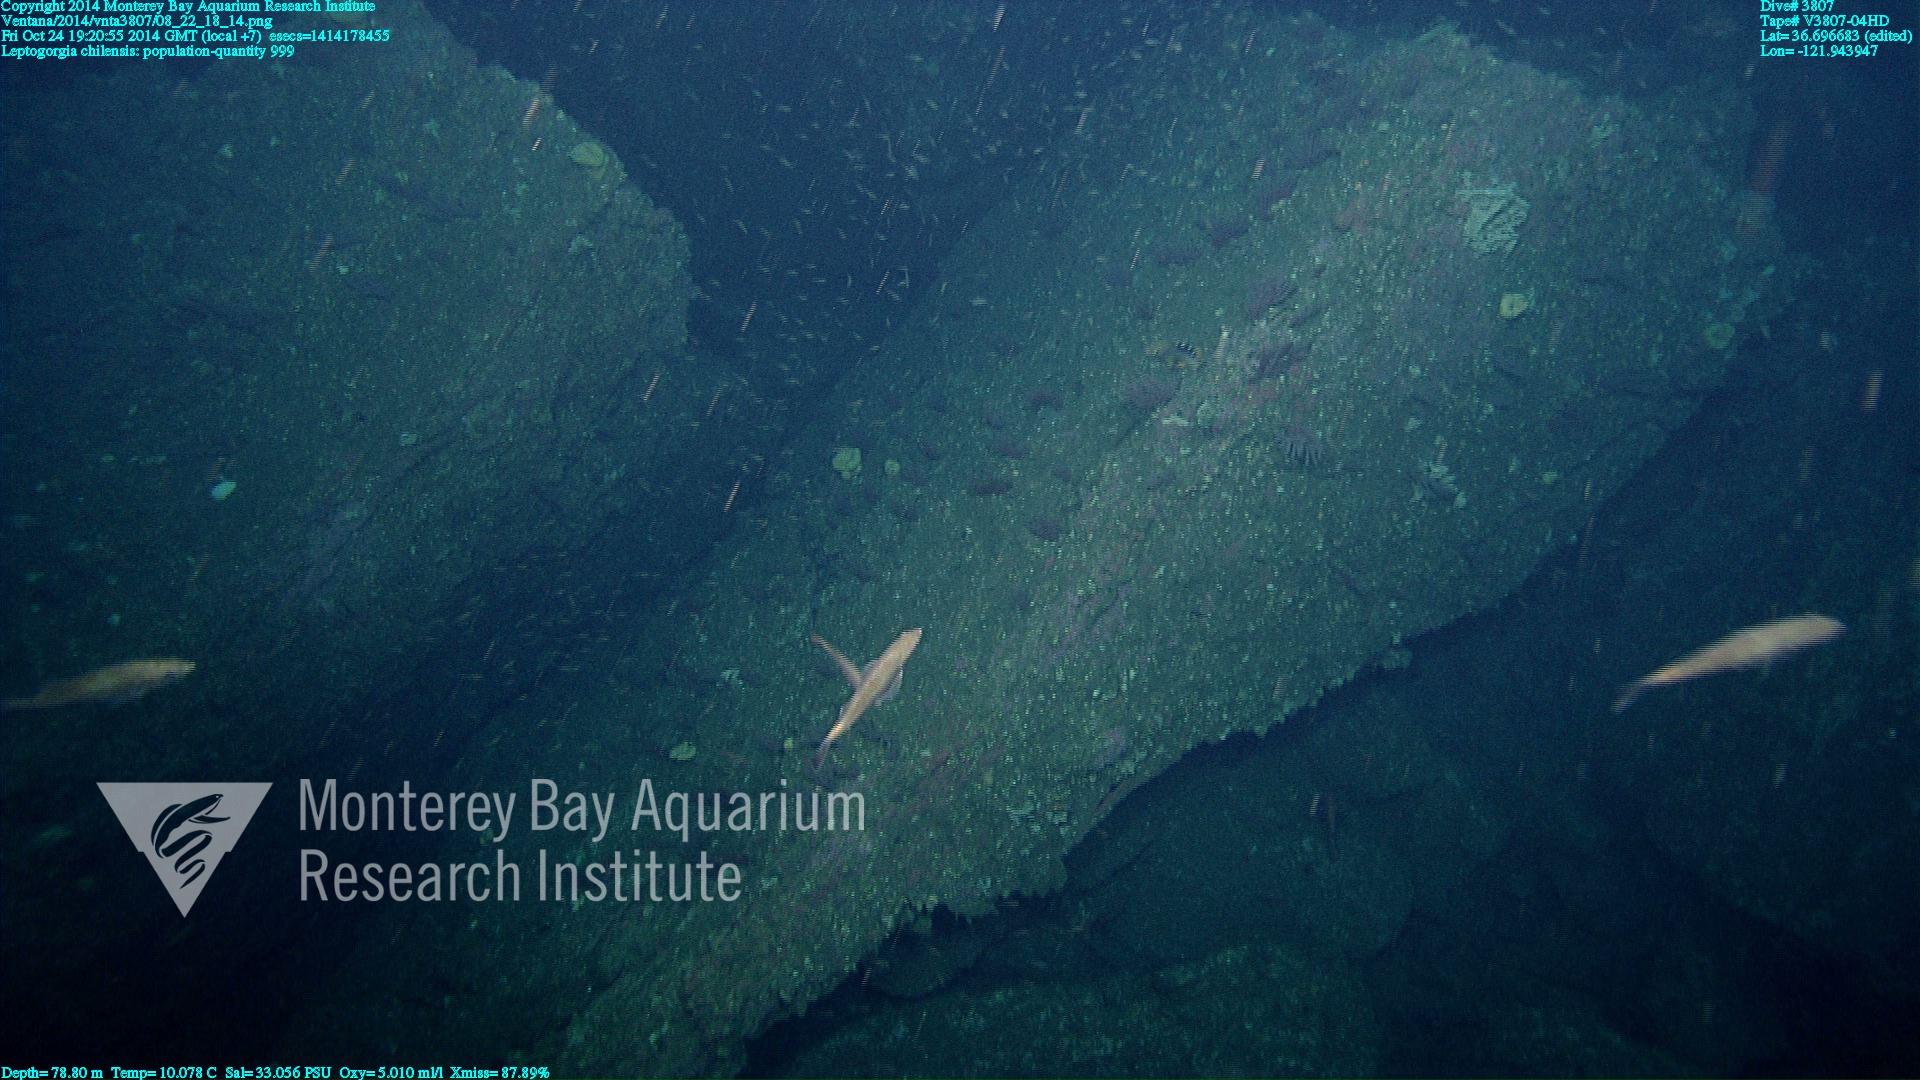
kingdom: Animalia
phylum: Cnidaria
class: Anthozoa
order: Malacalcyonacea
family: Gorgoniidae
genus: Leptogorgia
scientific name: Leptogorgia chilensis
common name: Carmine sea spray
